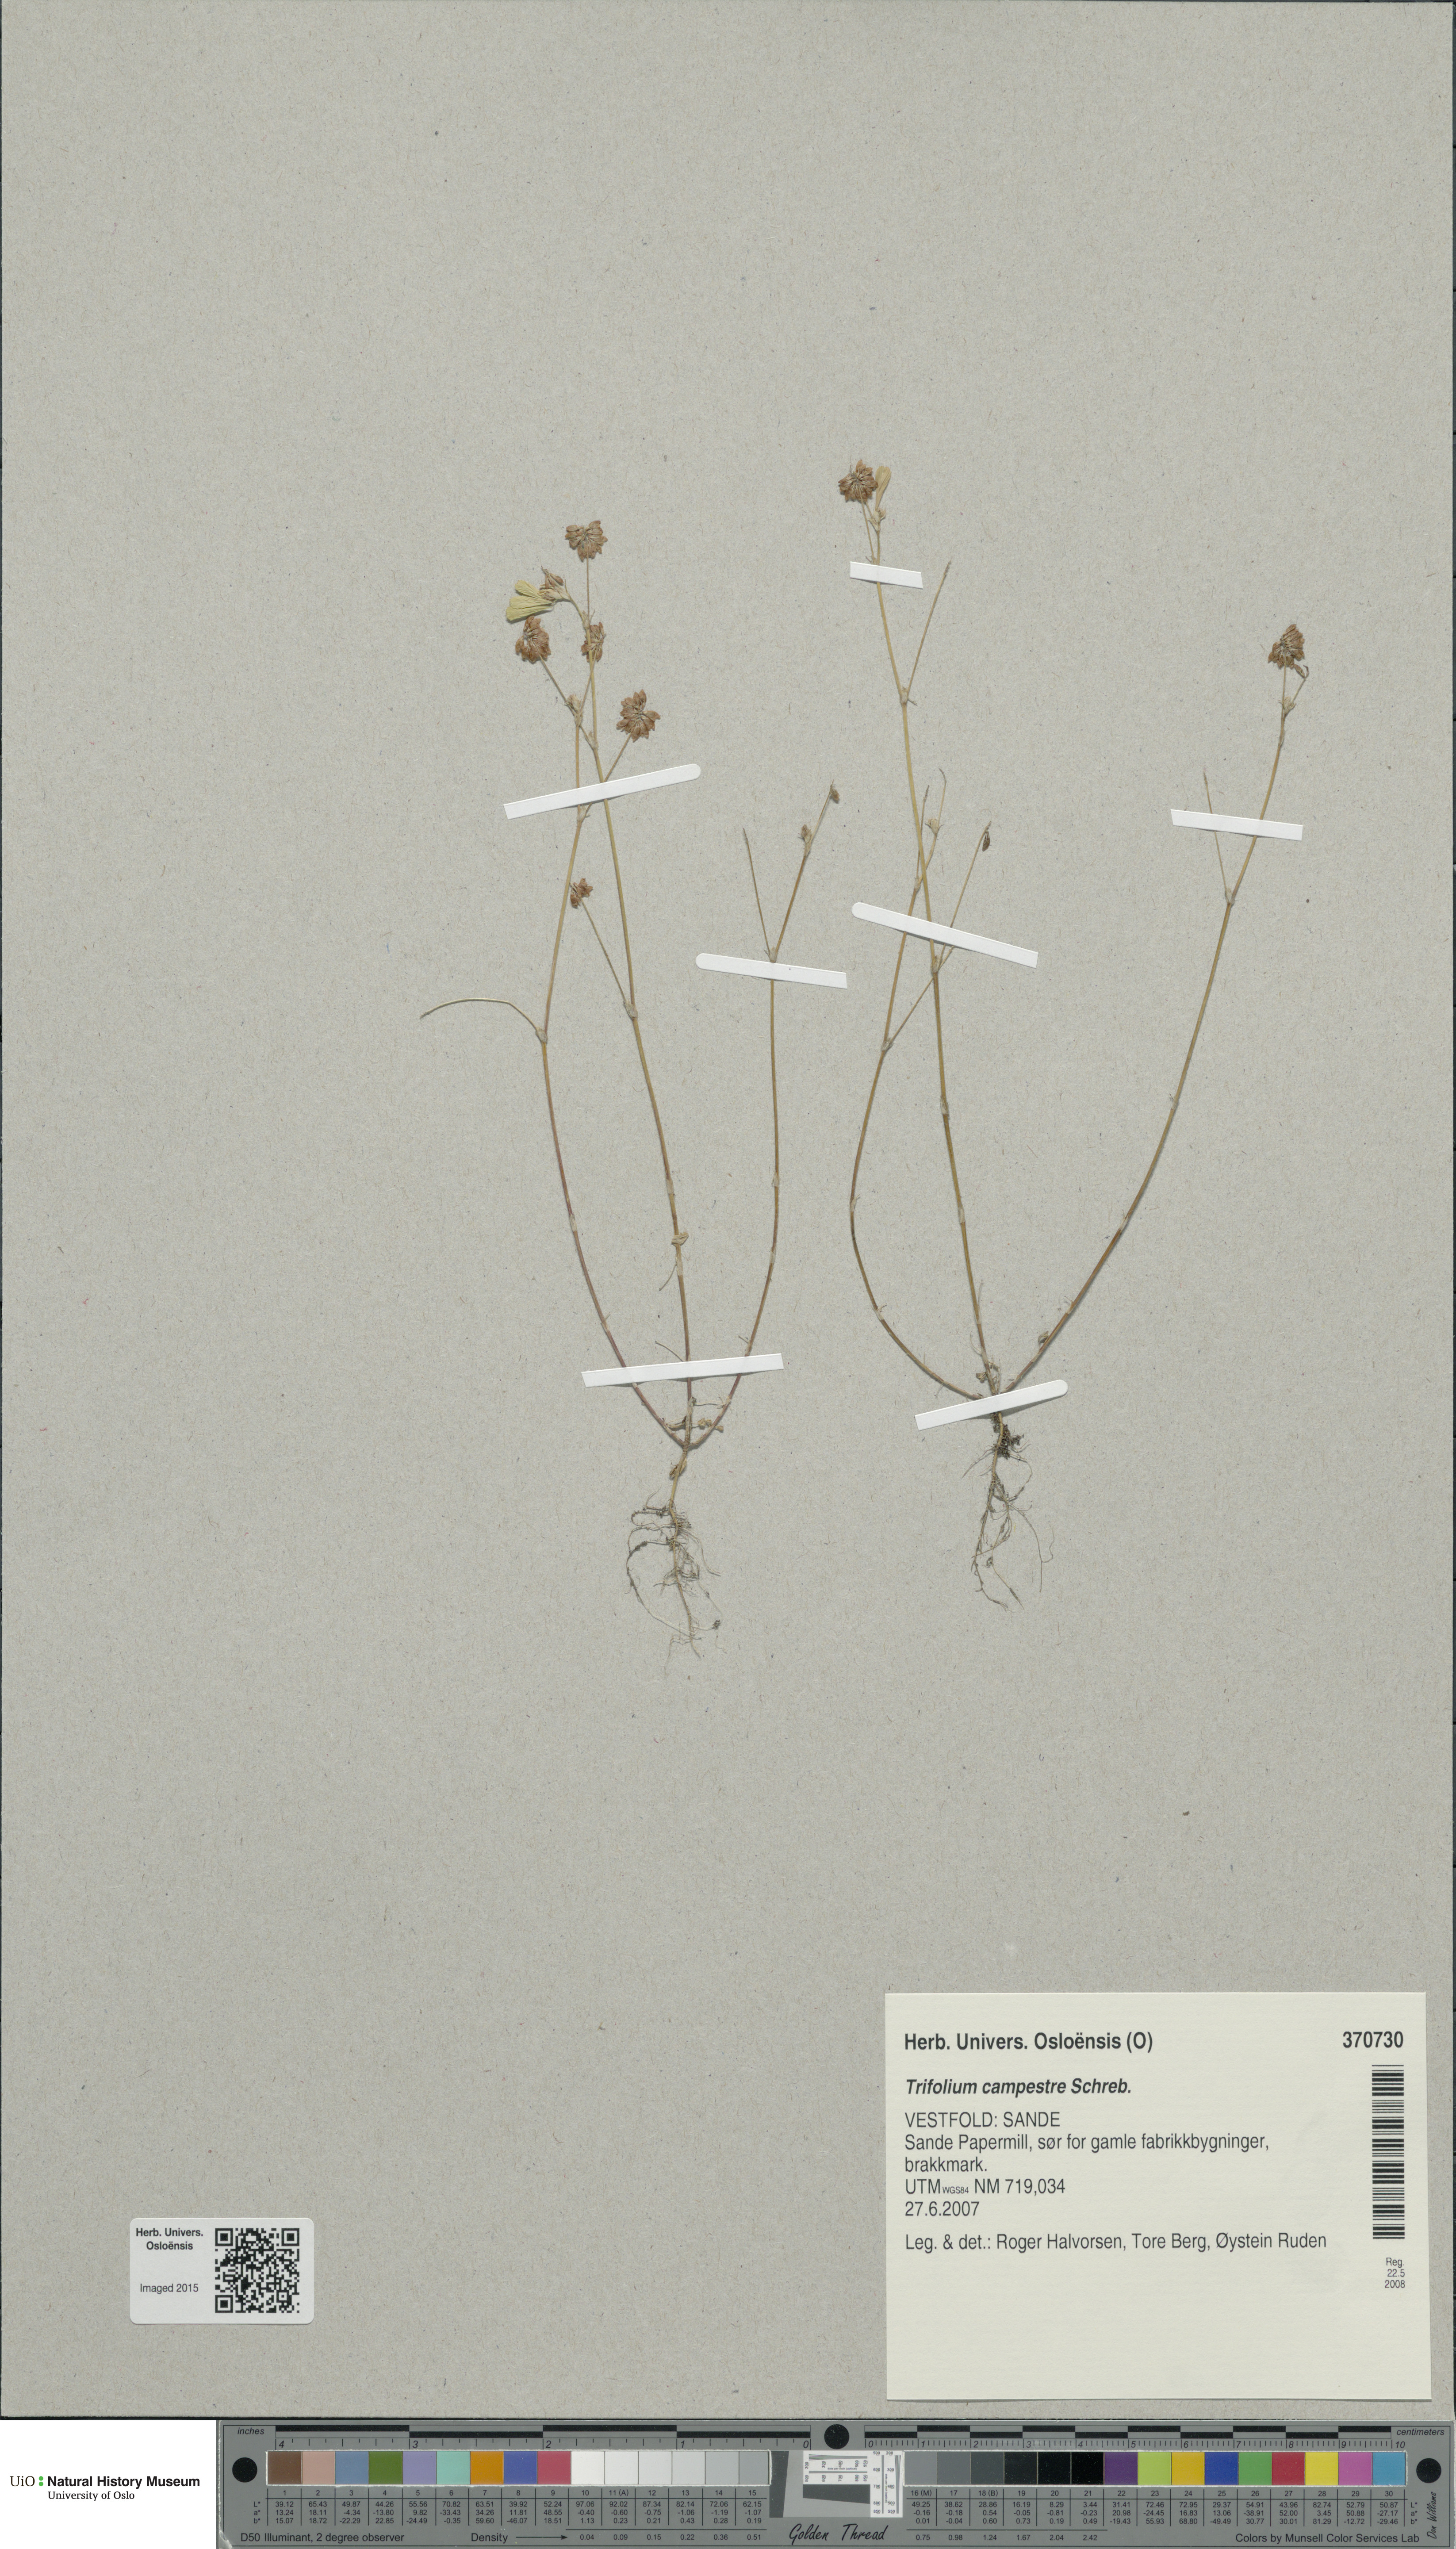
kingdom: Plantae
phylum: Tracheophyta
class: Magnoliopsida
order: Fabales
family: Fabaceae
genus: Trifolium
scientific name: Trifolium campestre
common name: Field clover
